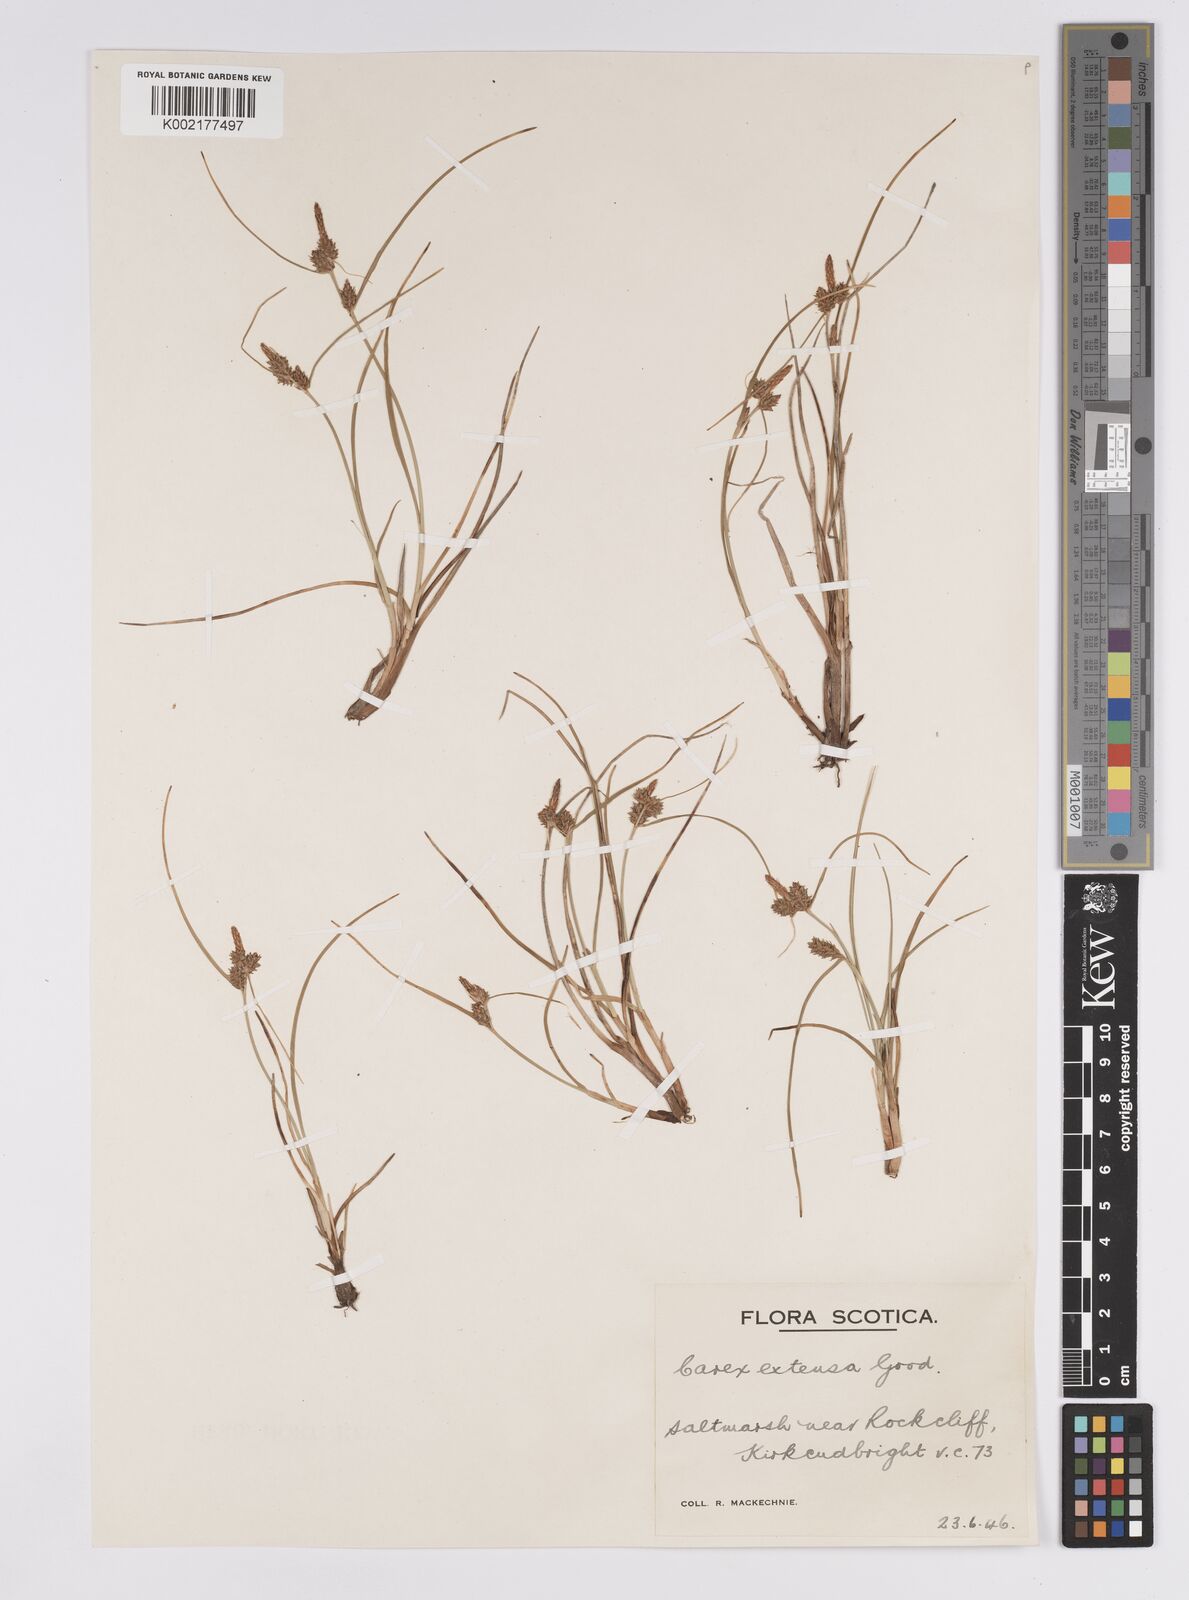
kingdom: Plantae
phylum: Tracheophyta
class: Liliopsida
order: Poales
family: Cyperaceae
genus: Carex
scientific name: Carex extensa
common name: Long-bracted sedge
